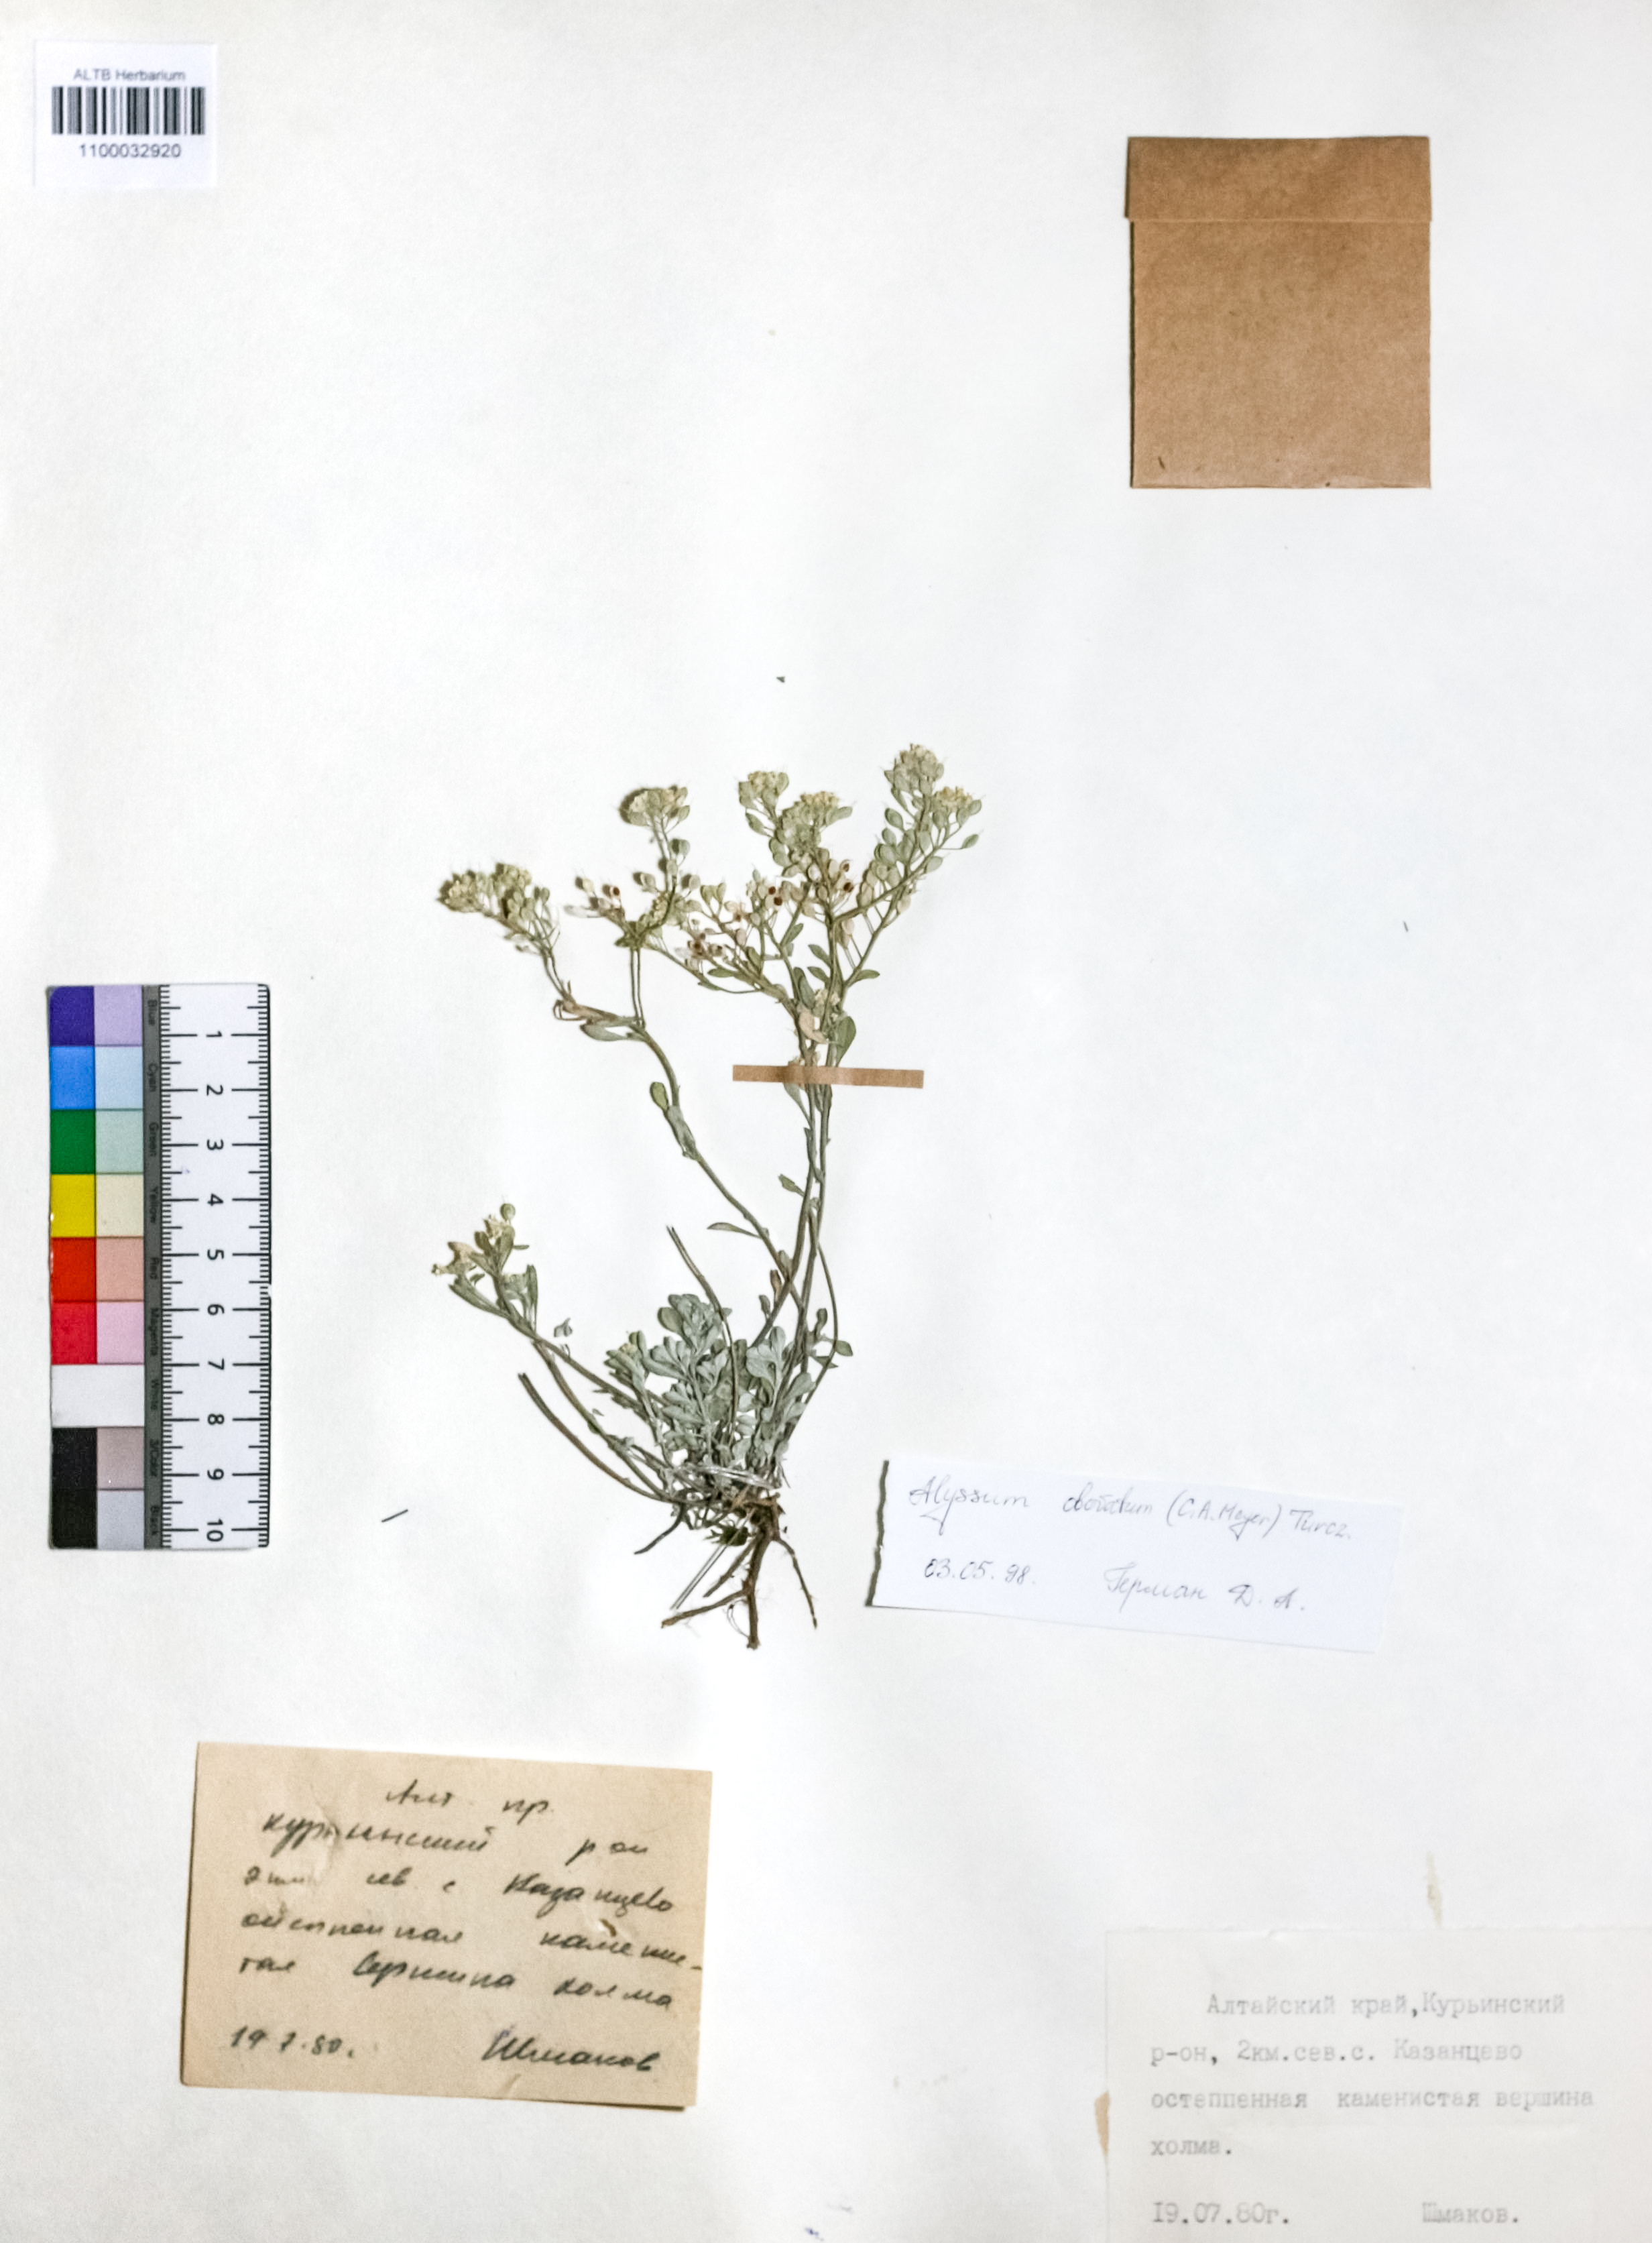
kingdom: Plantae
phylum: Tracheophyta
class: Magnoliopsida
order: Brassicales
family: Brassicaceae
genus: Odontarrhena
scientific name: Odontarrhena obovata
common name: American alyssum
